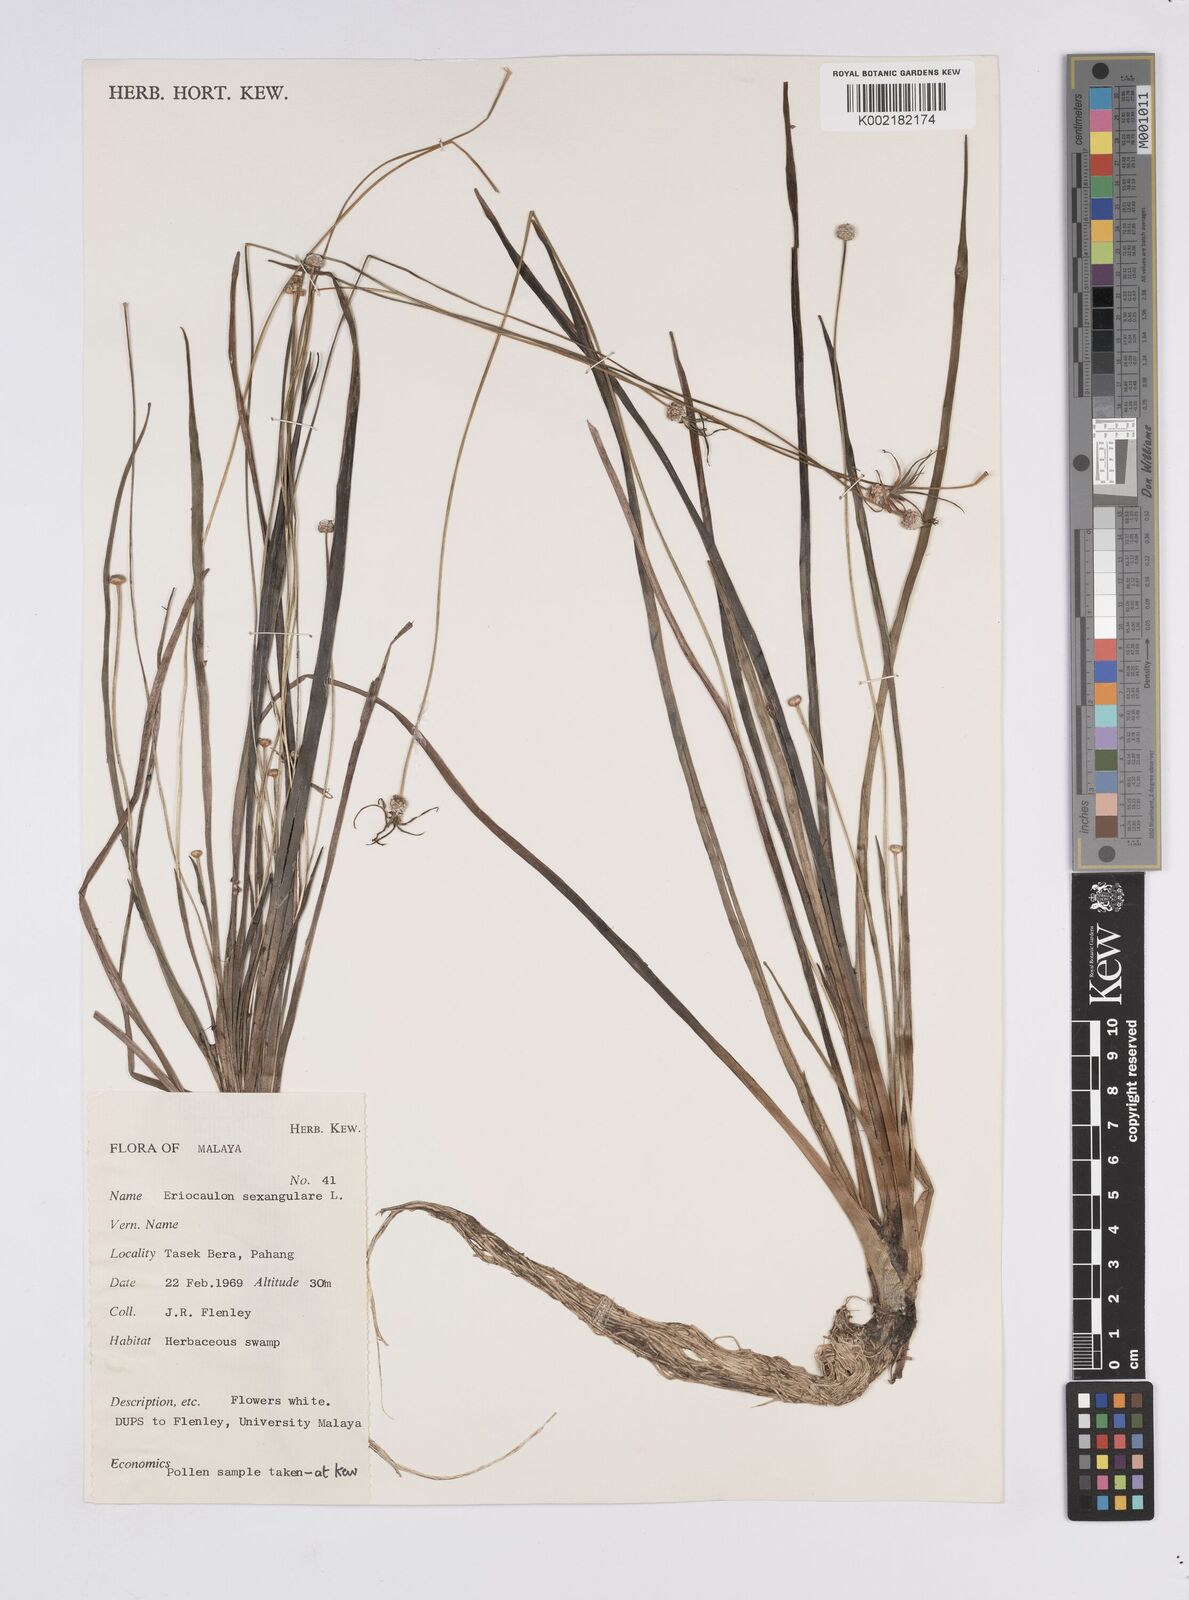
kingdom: Plantae
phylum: Tracheophyta
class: Liliopsida
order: Poales
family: Eriocaulaceae
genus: Eriocaulon
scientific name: Eriocaulon sexangulare
